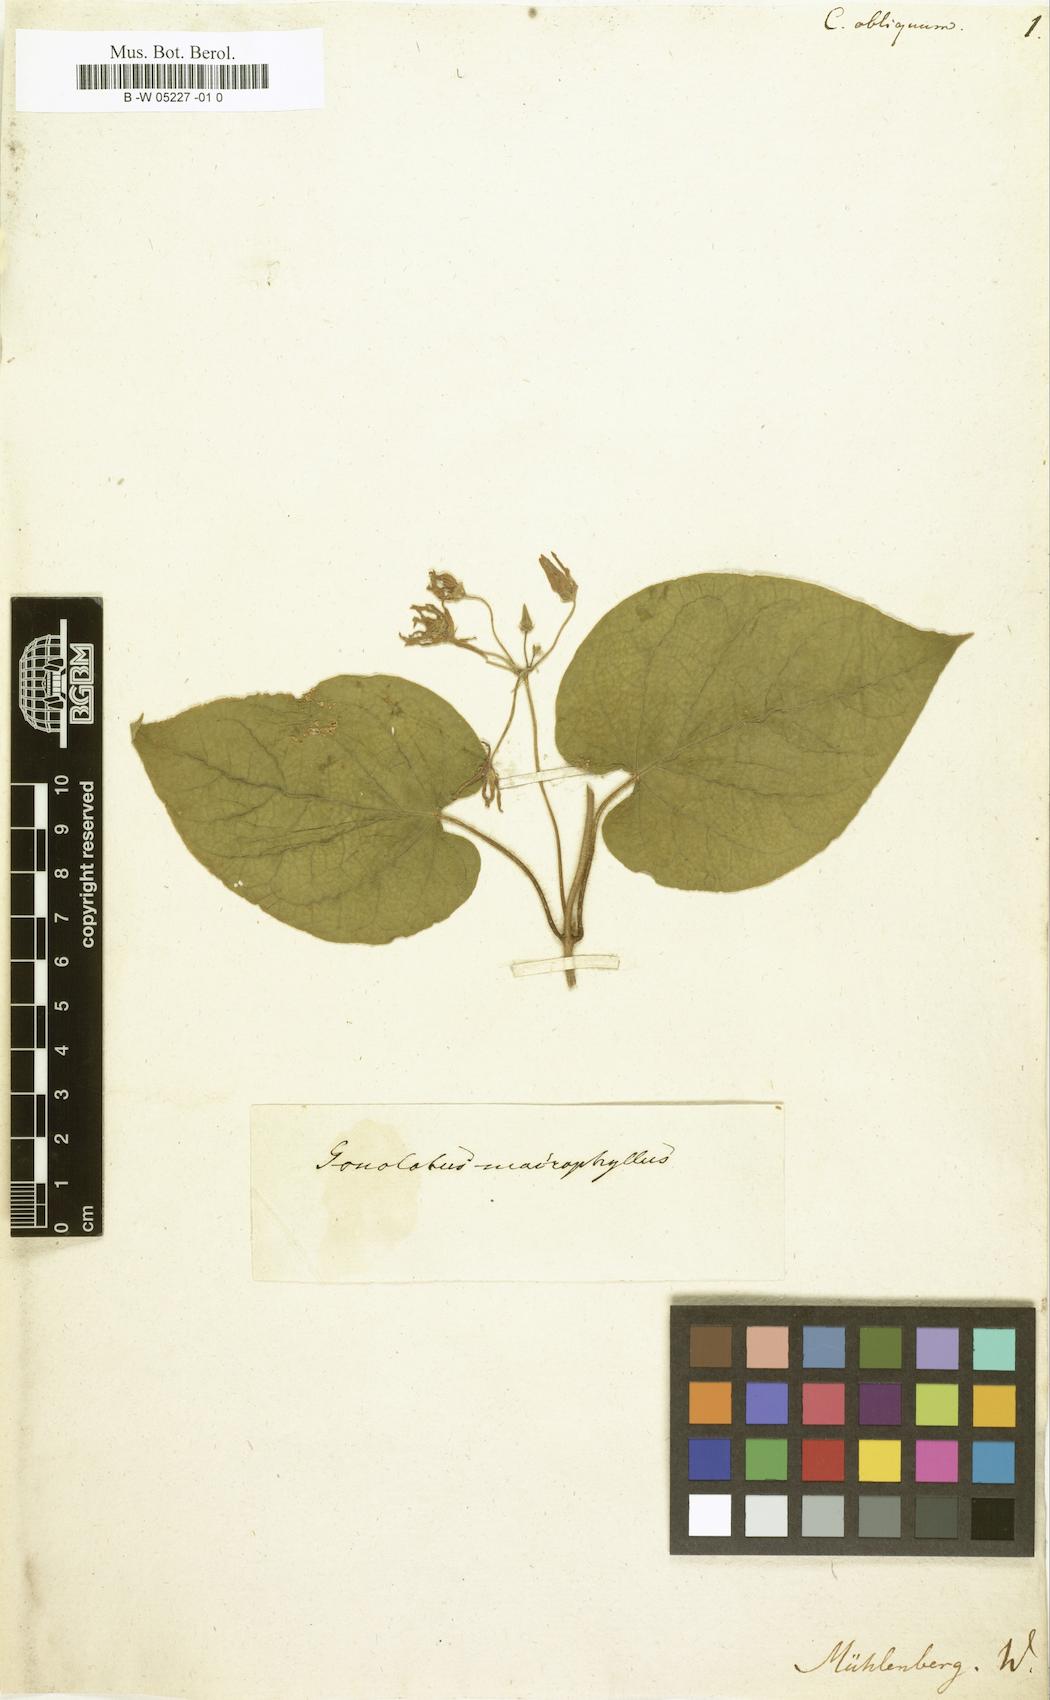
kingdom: Plantae
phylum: Tracheophyta
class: Magnoliopsida
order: Gentianales
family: Apocynaceae
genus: Matelea
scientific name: Matelea obliqua
